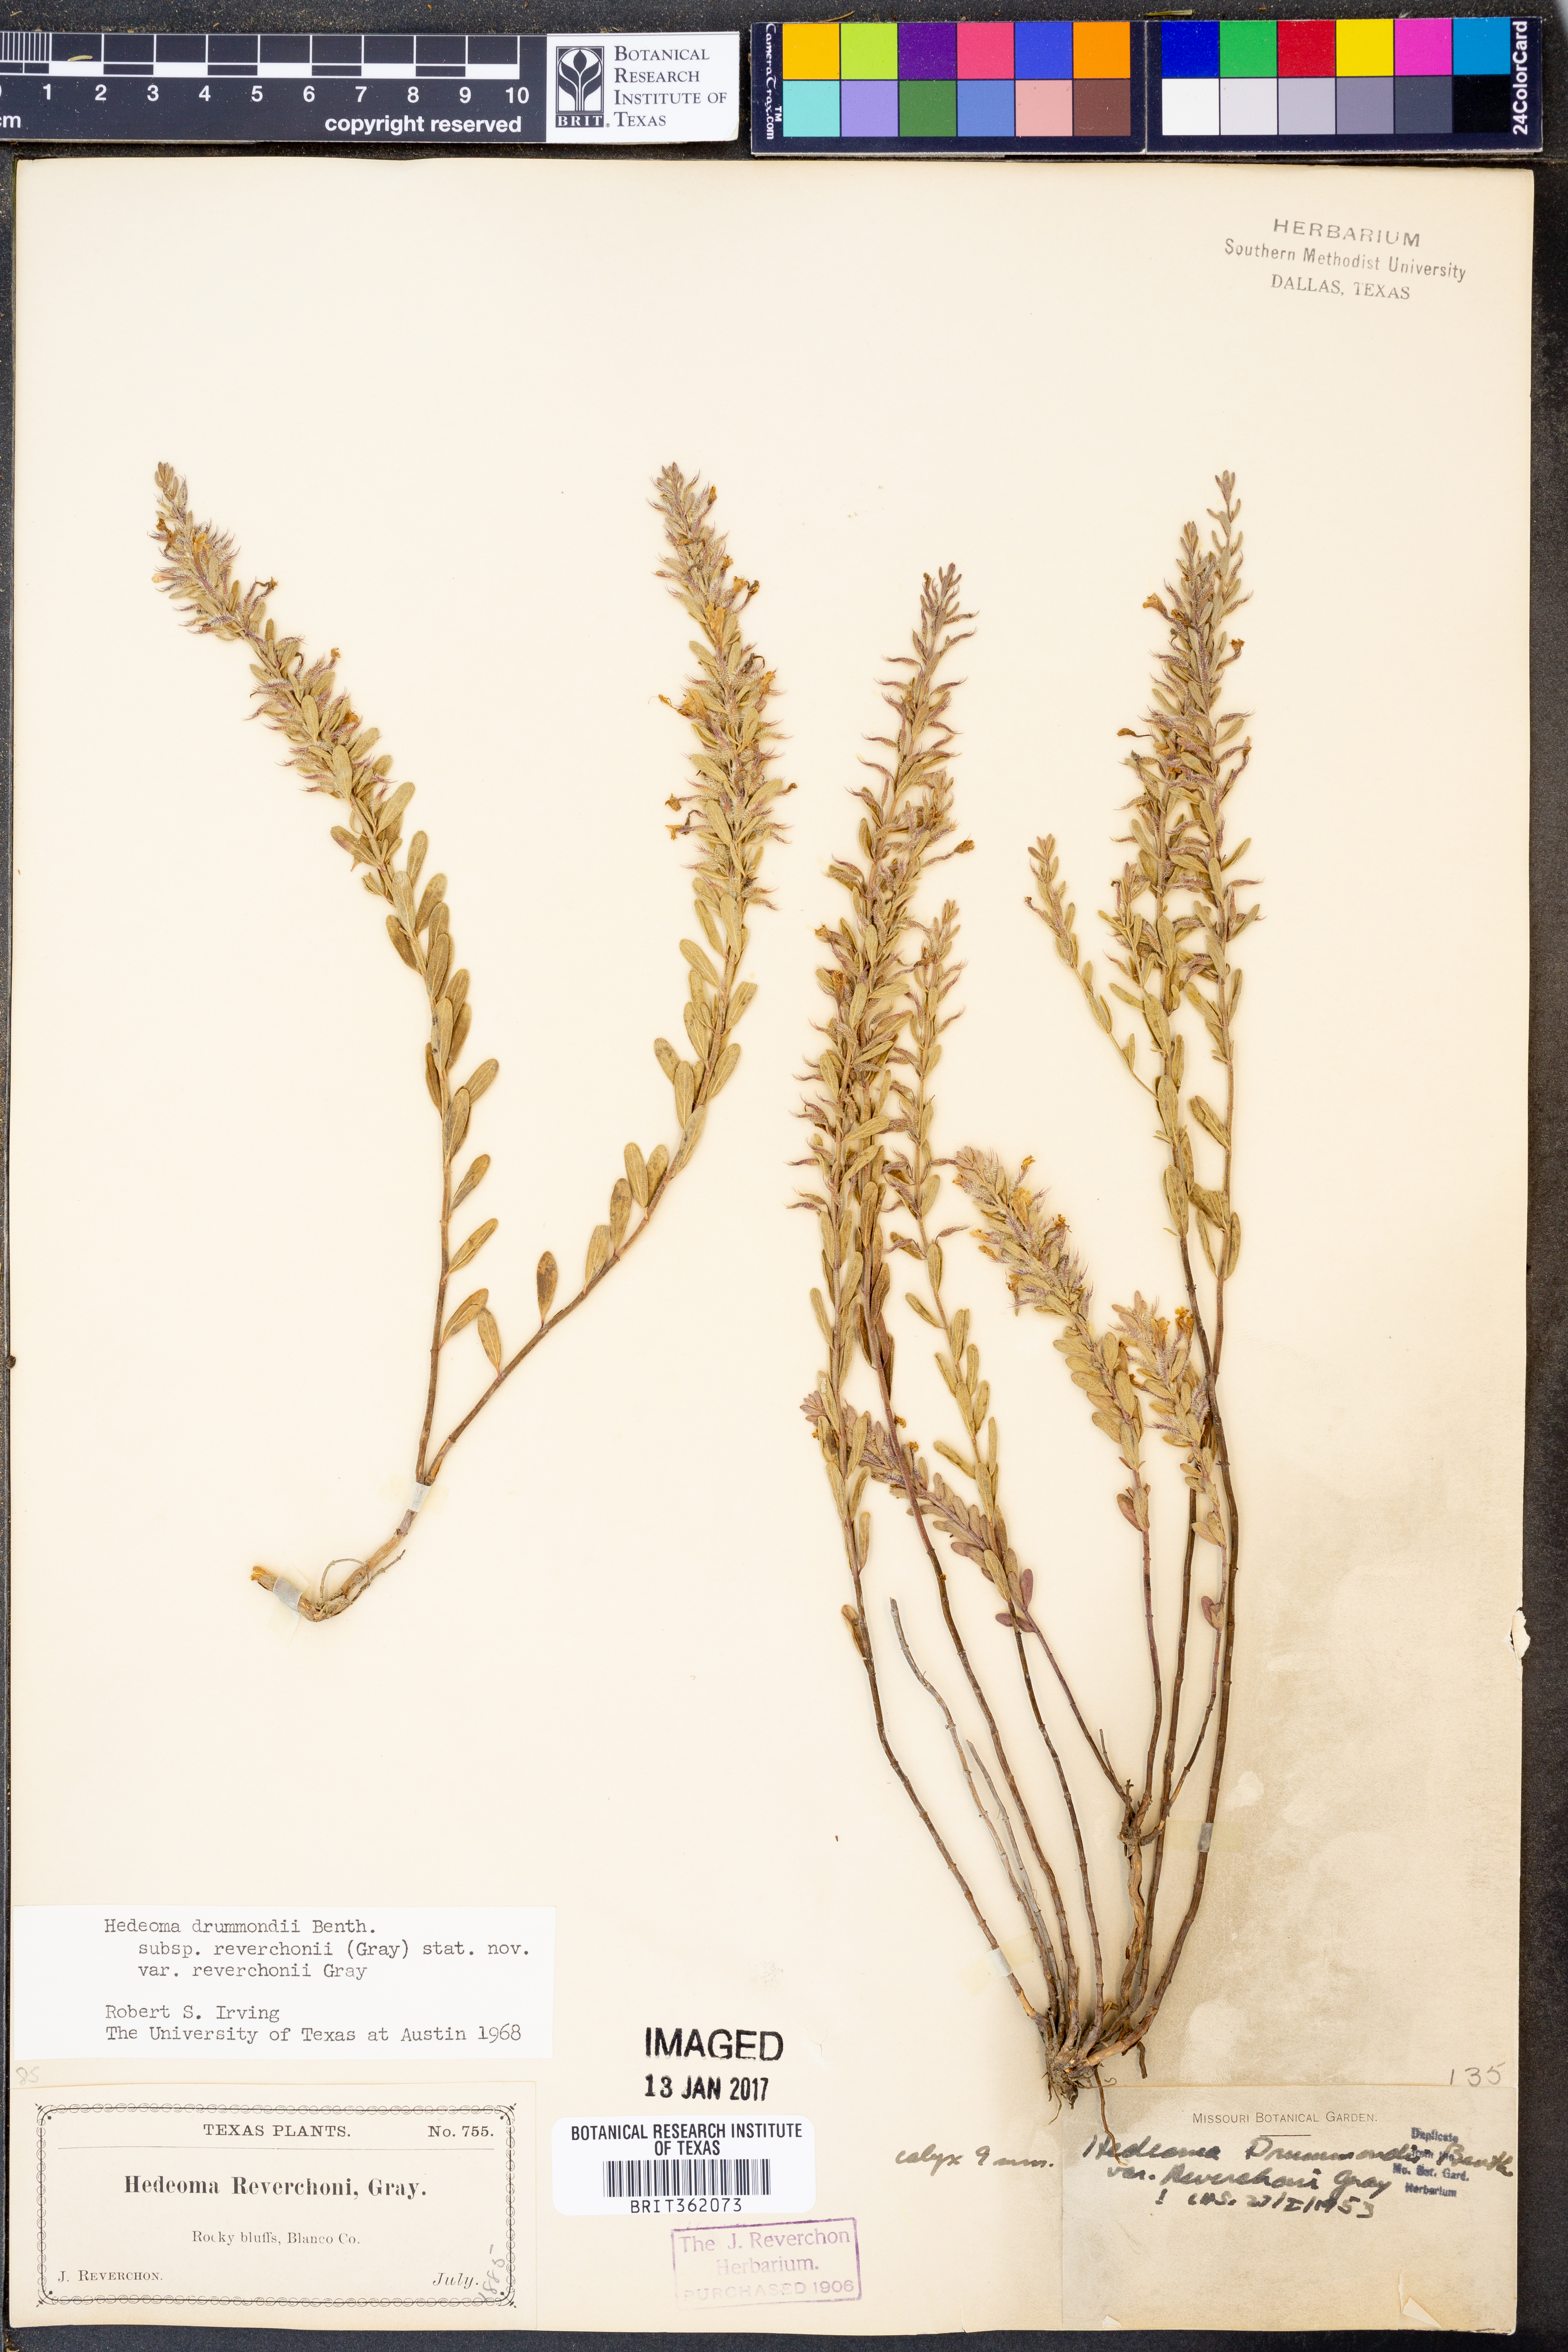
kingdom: Plantae
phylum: Tracheophyta
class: Magnoliopsida
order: Lamiales
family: Lamiaceae
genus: Hedeoma
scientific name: Hedeoma reverchonii
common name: Reverchon's false penny-royal
